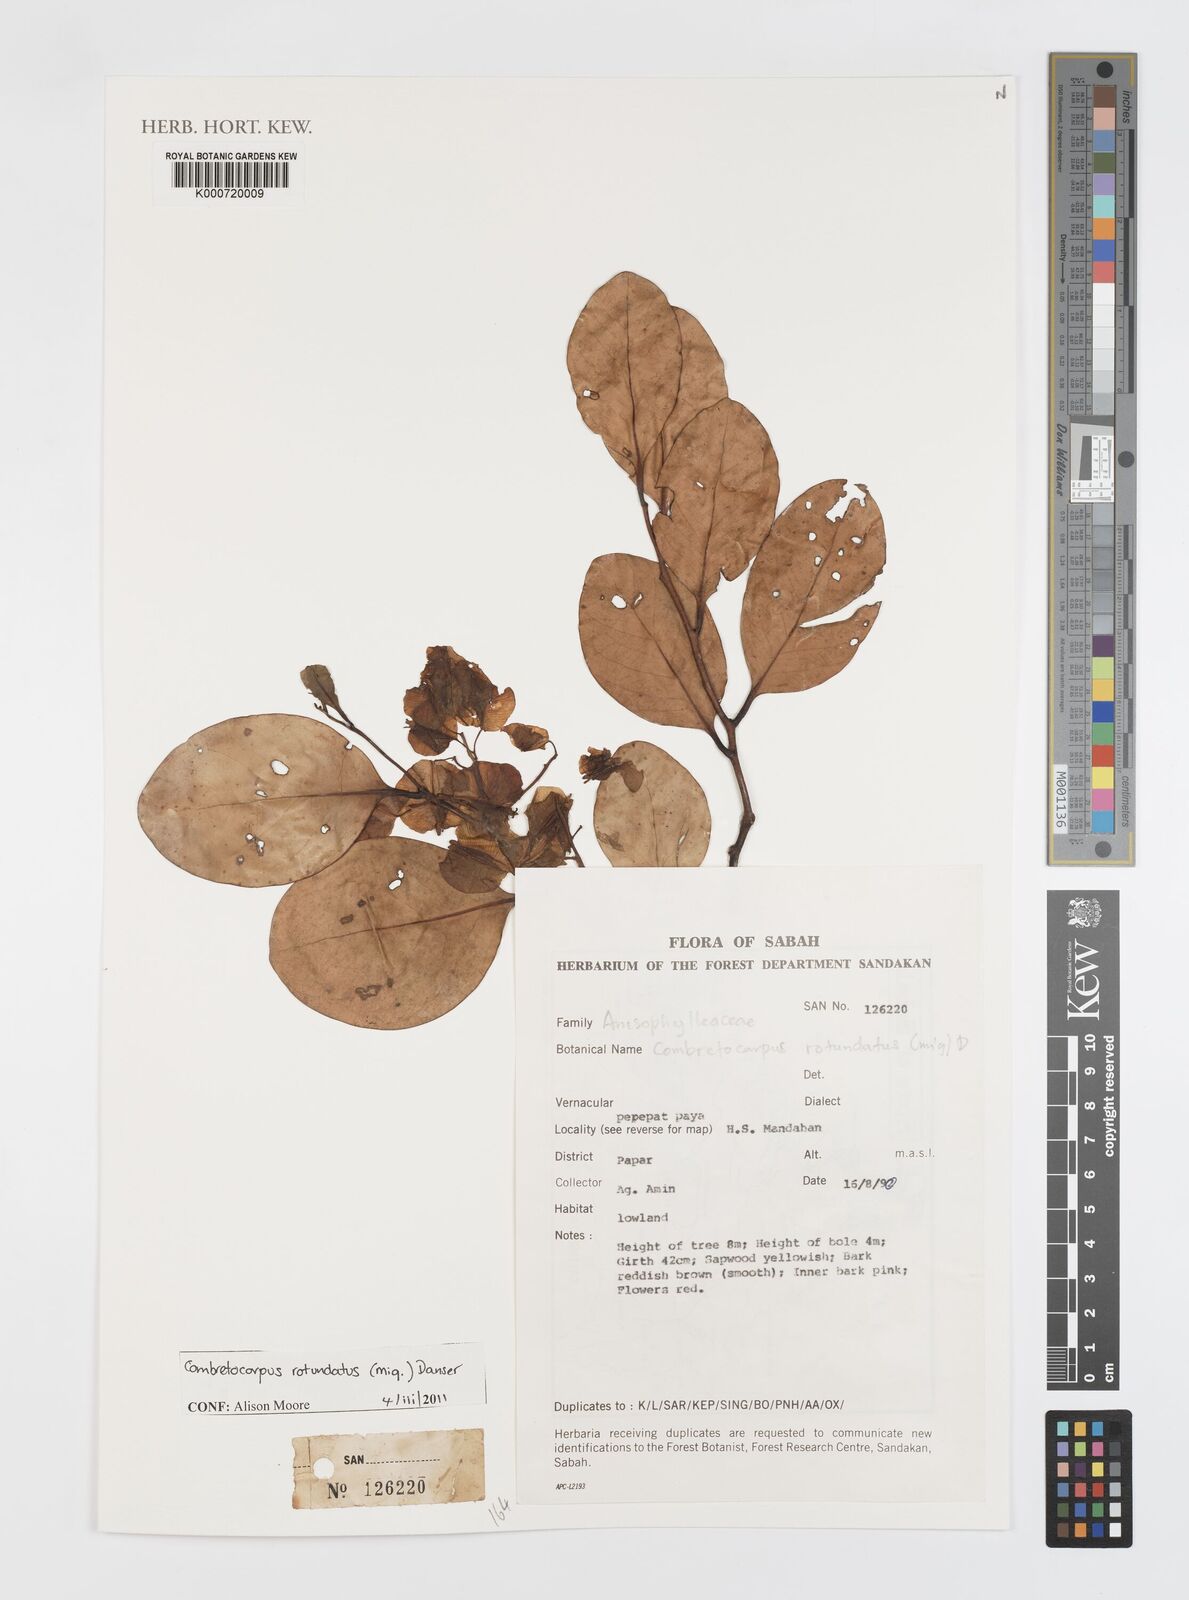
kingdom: Plantae
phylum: Tracheophyta
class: Magnoliopsida
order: Cucurbitales
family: Anisophylleaceae
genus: Combretocarpus
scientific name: Combretocarpus rotundatus
